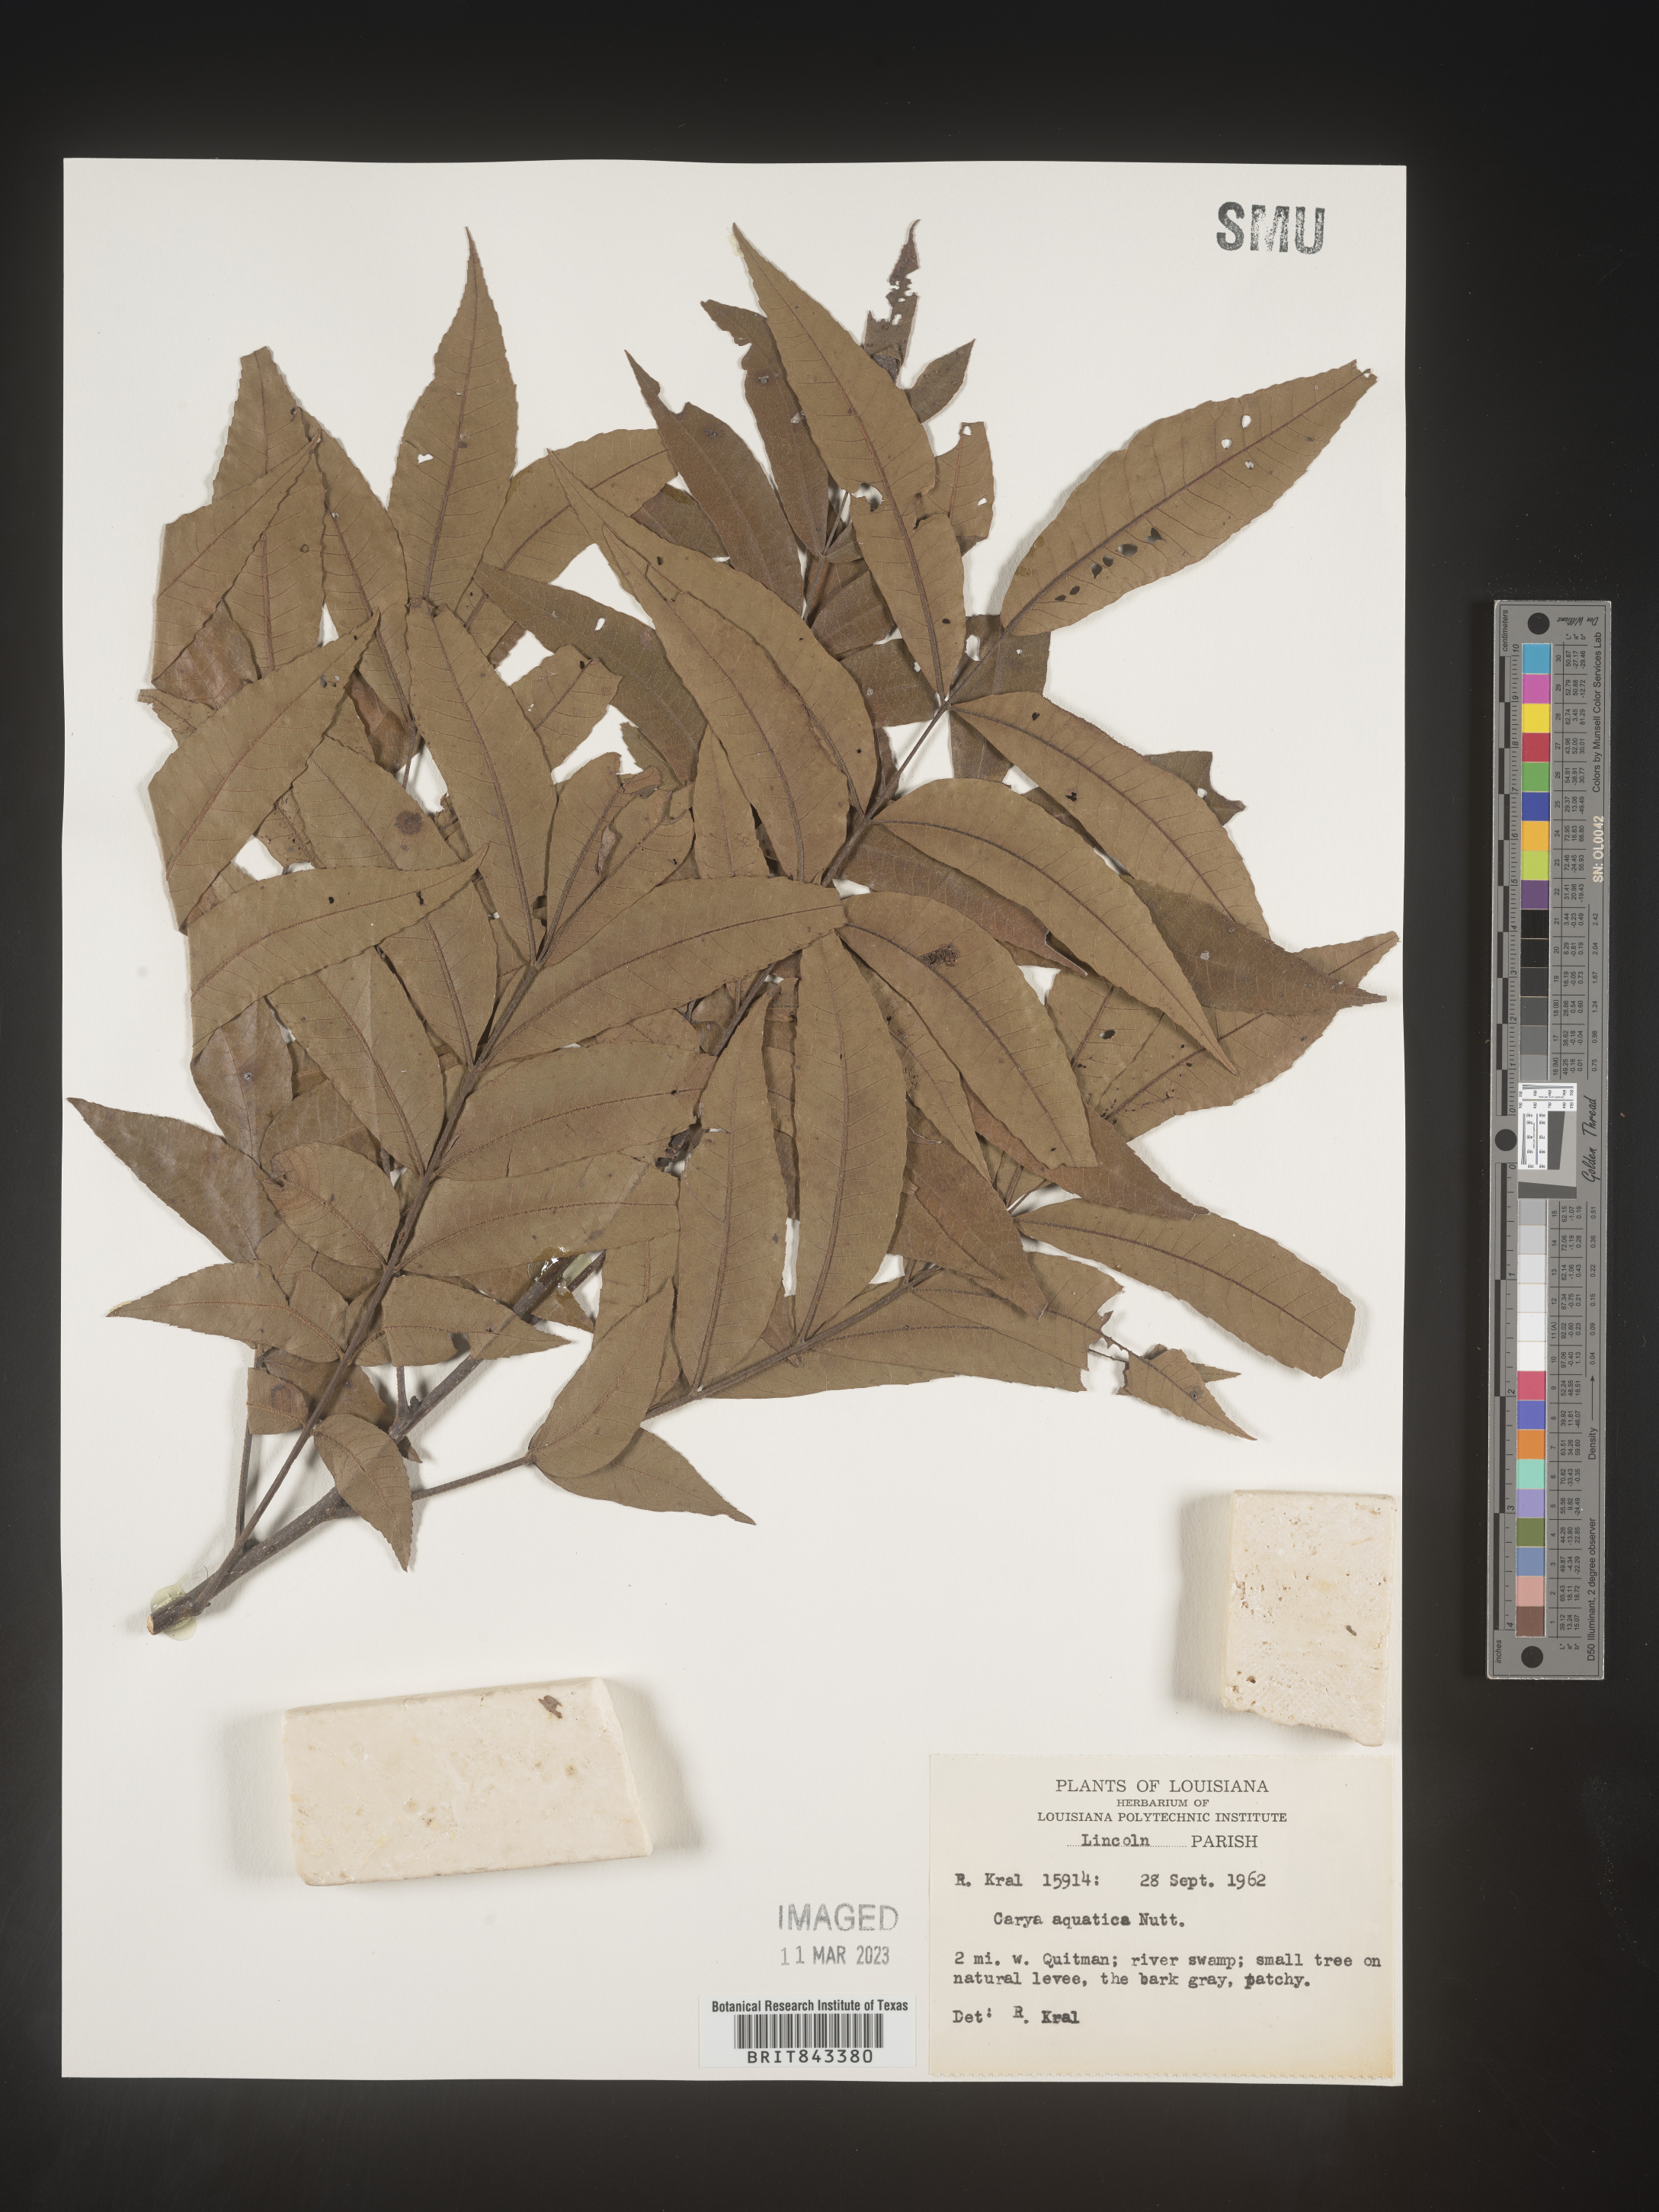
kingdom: Plantae
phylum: Tracheophyta
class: Magnoliopsida
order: Fagales
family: Juglandaceae
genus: Carya
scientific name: Carya aquatica
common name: Water hickory
